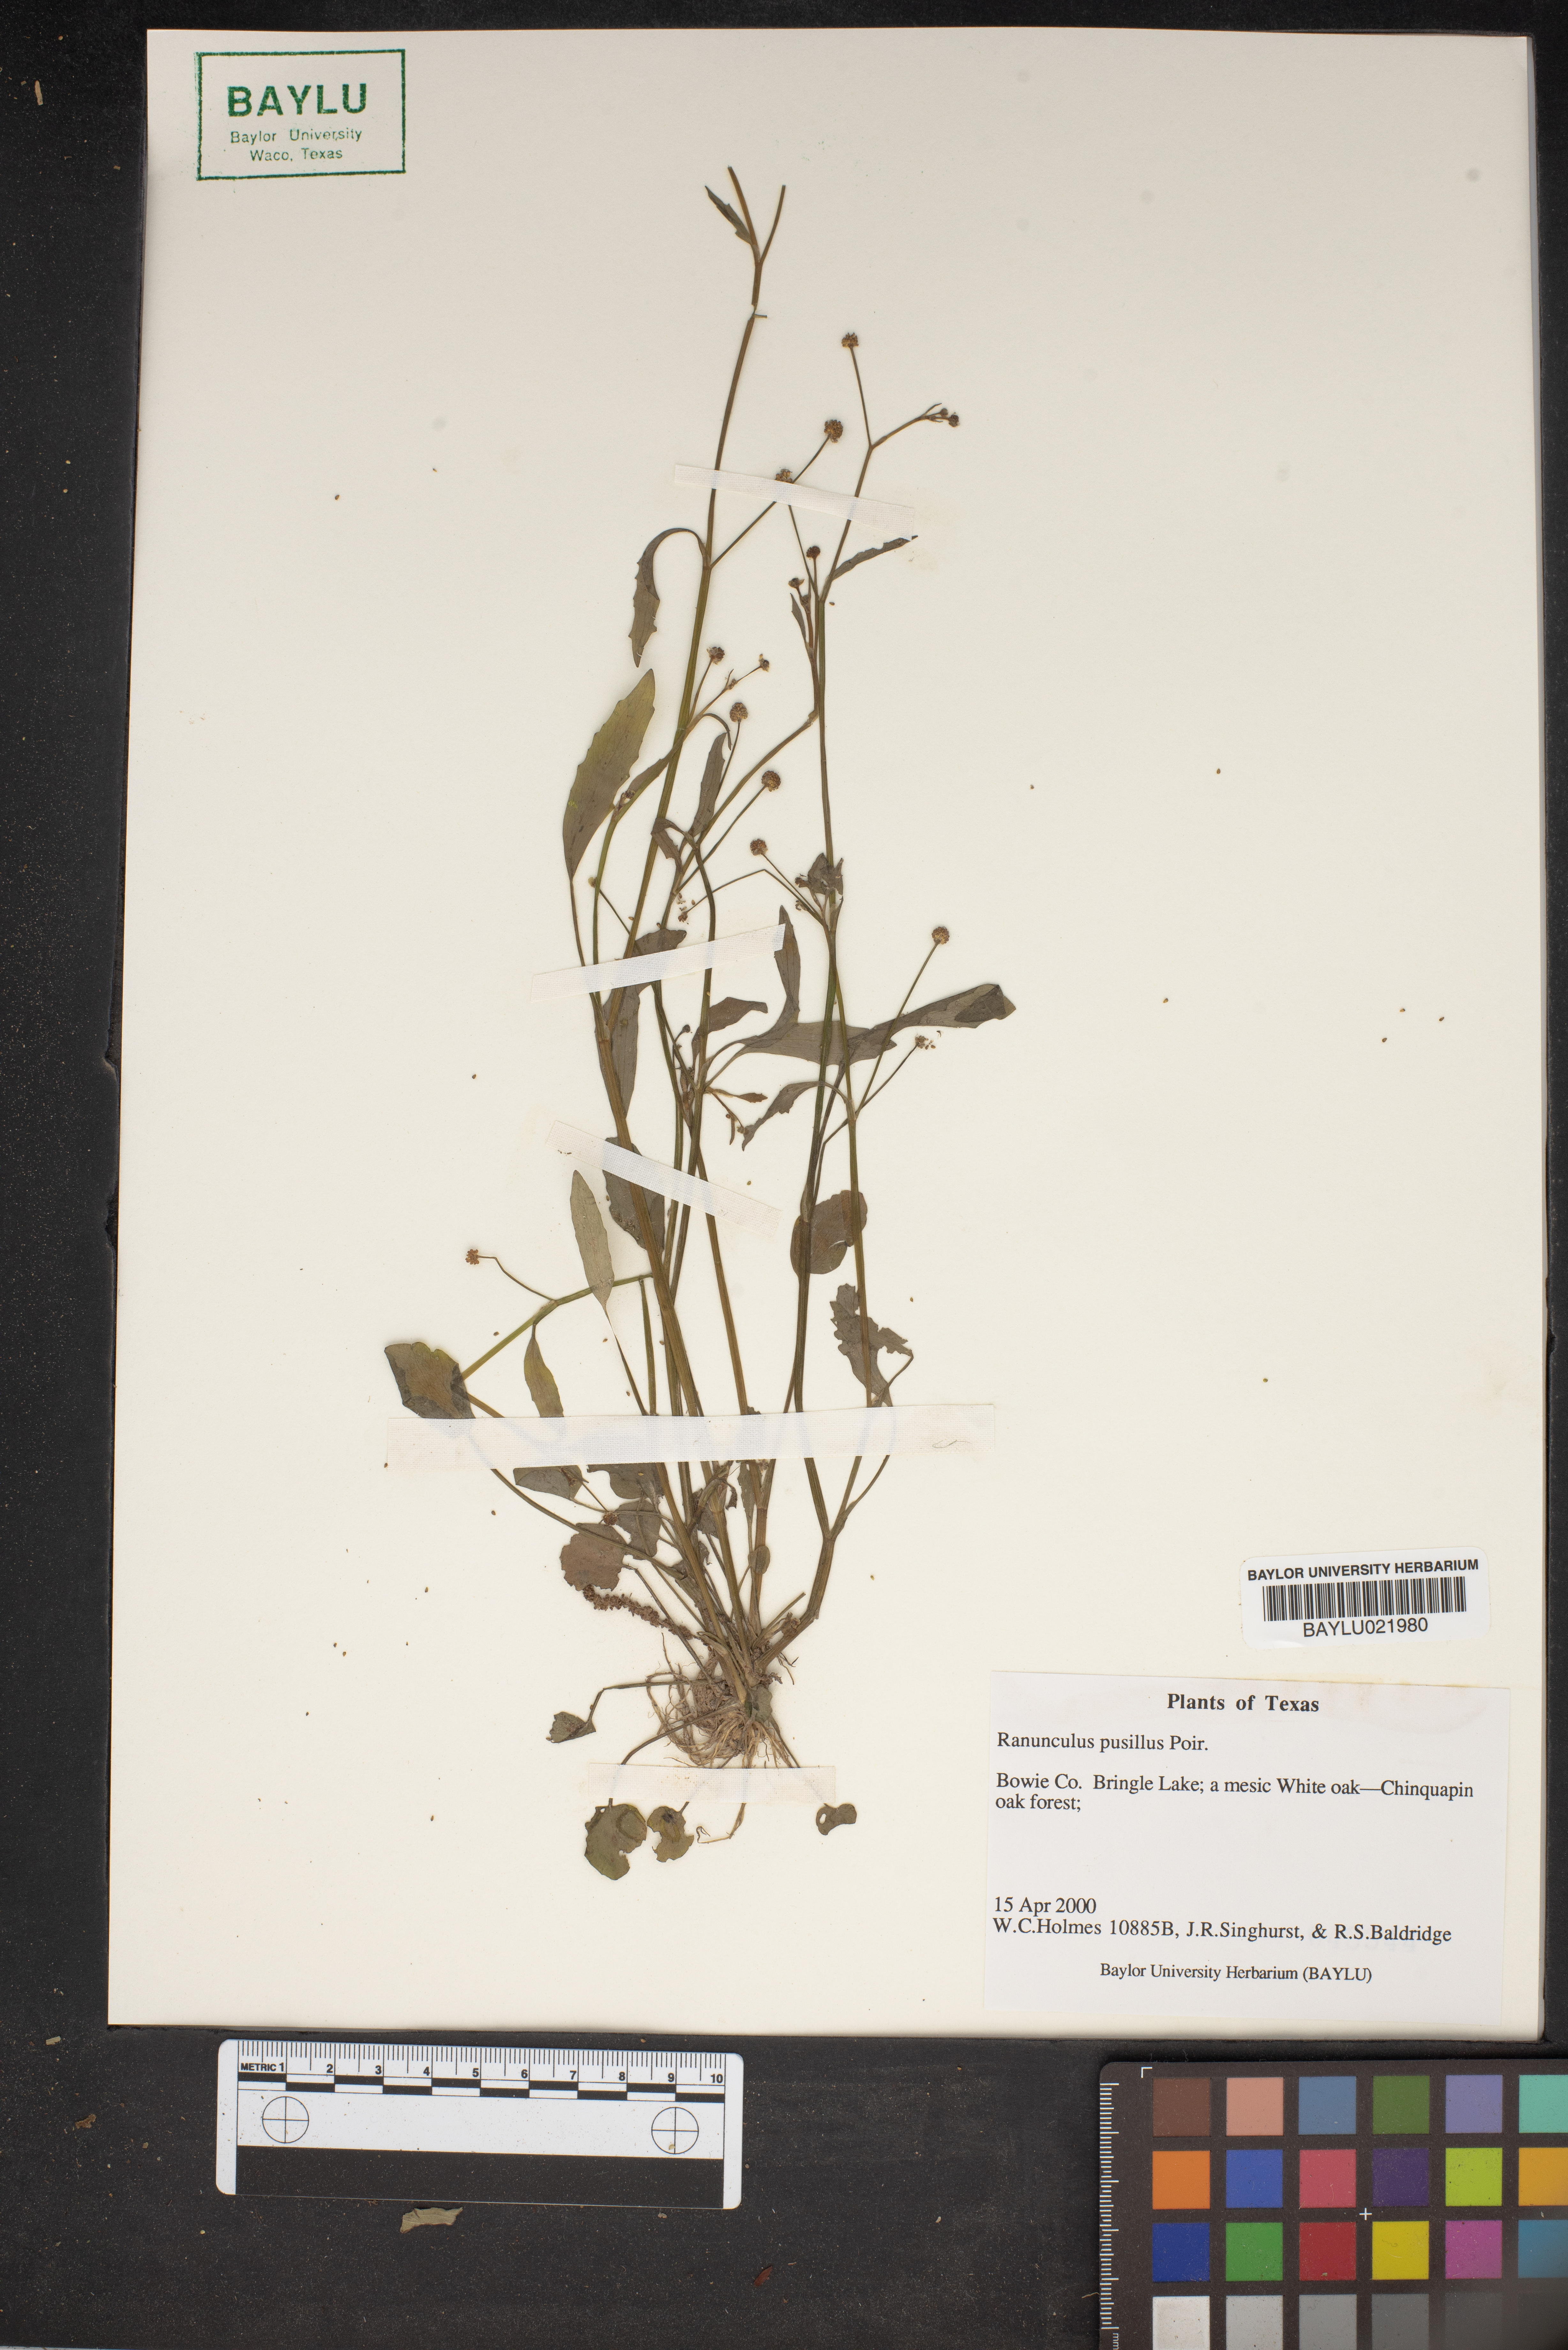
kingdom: Plantae
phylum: Tracheophyta
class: Magnoliopsida
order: Ranunculales
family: Ranunculaceae
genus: Ranunculus
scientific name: Ranunculus pusillus
